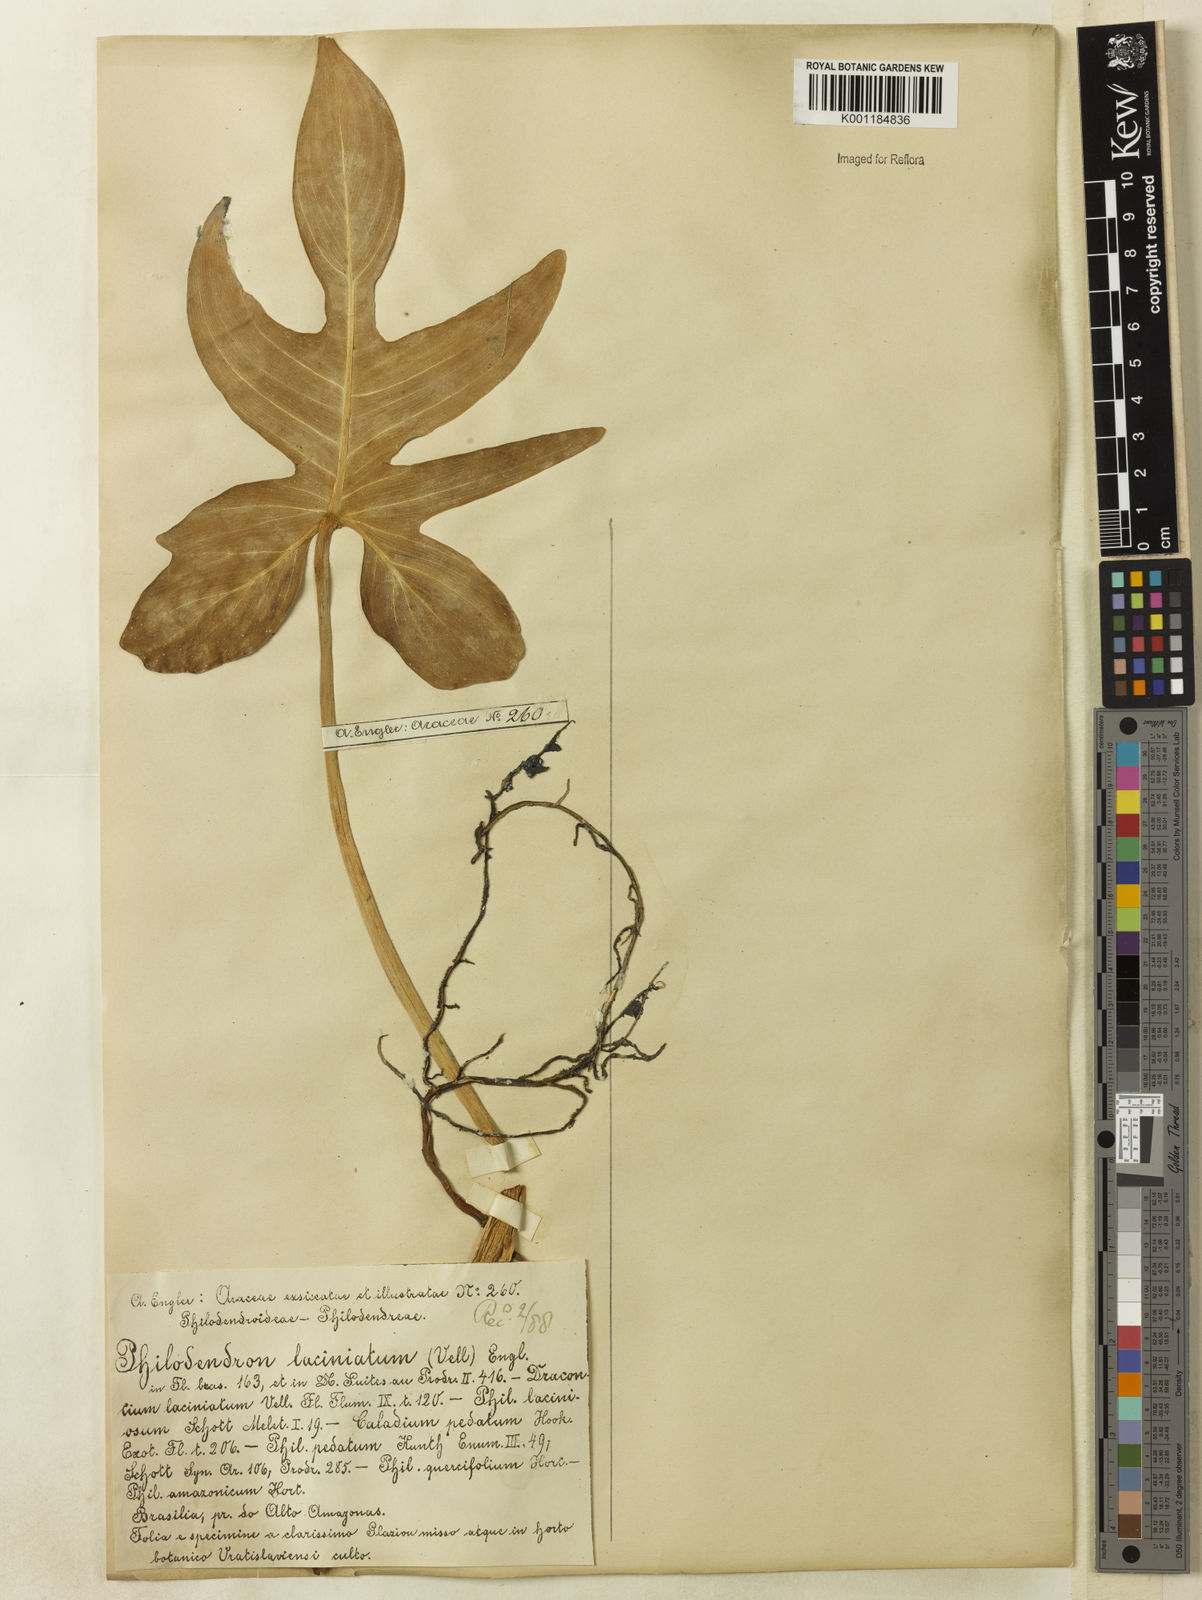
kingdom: Plantae
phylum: Tracheophyta
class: Liliopsida
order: Alismatales
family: Araceae
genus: Philodendron
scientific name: Philodendron pedatum
